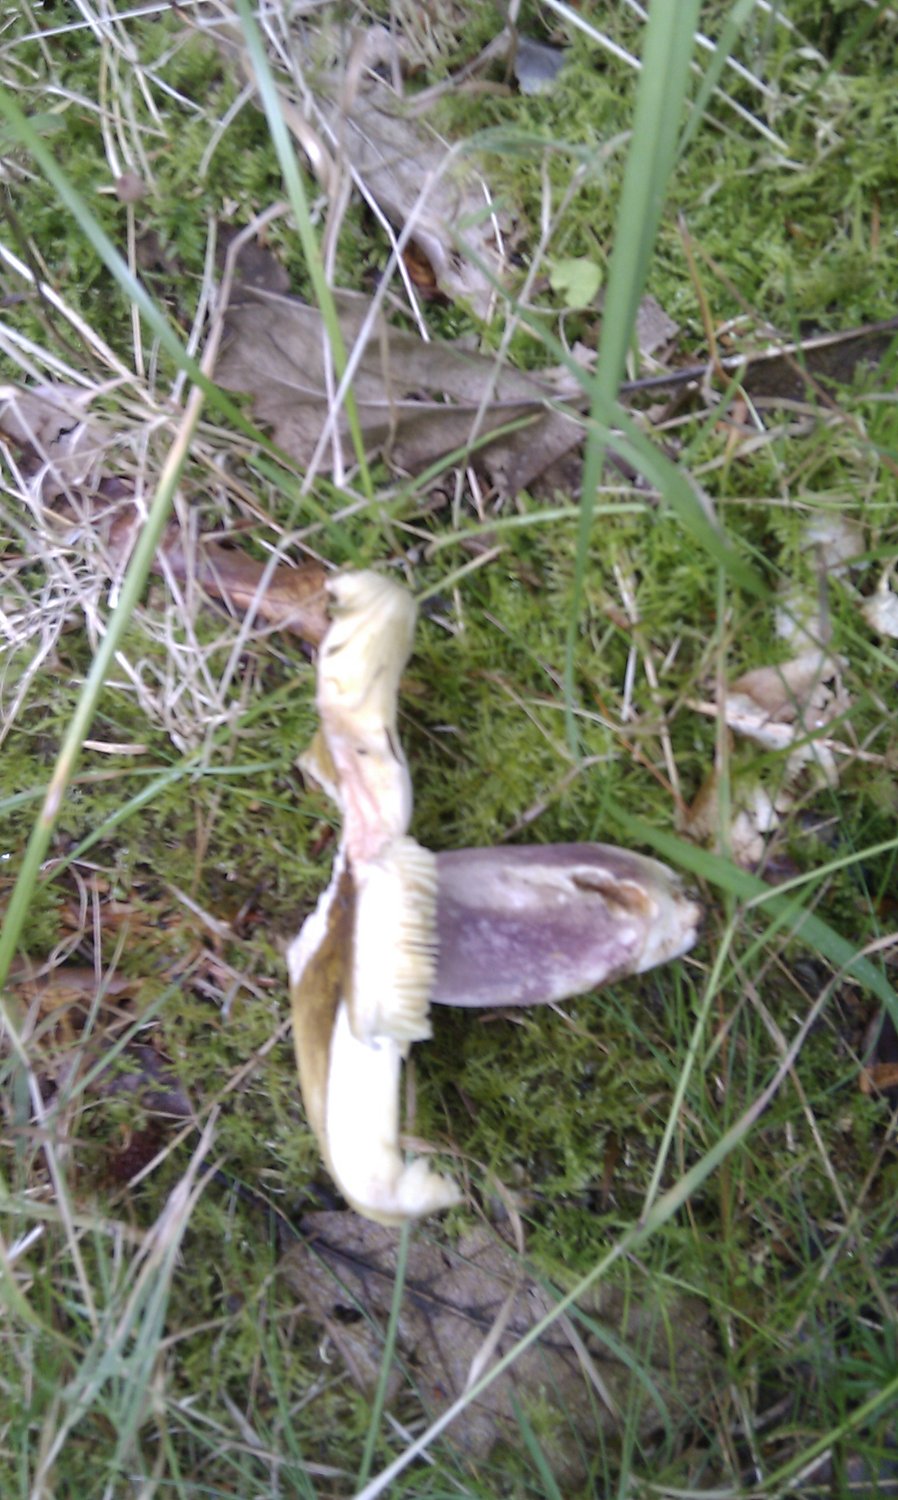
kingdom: Fungi
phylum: Basidiomycota
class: Agaricomycetes
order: Russulales
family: Russulaceae
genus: Russula
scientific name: Russula violeipes
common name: ferskengul skørhat
